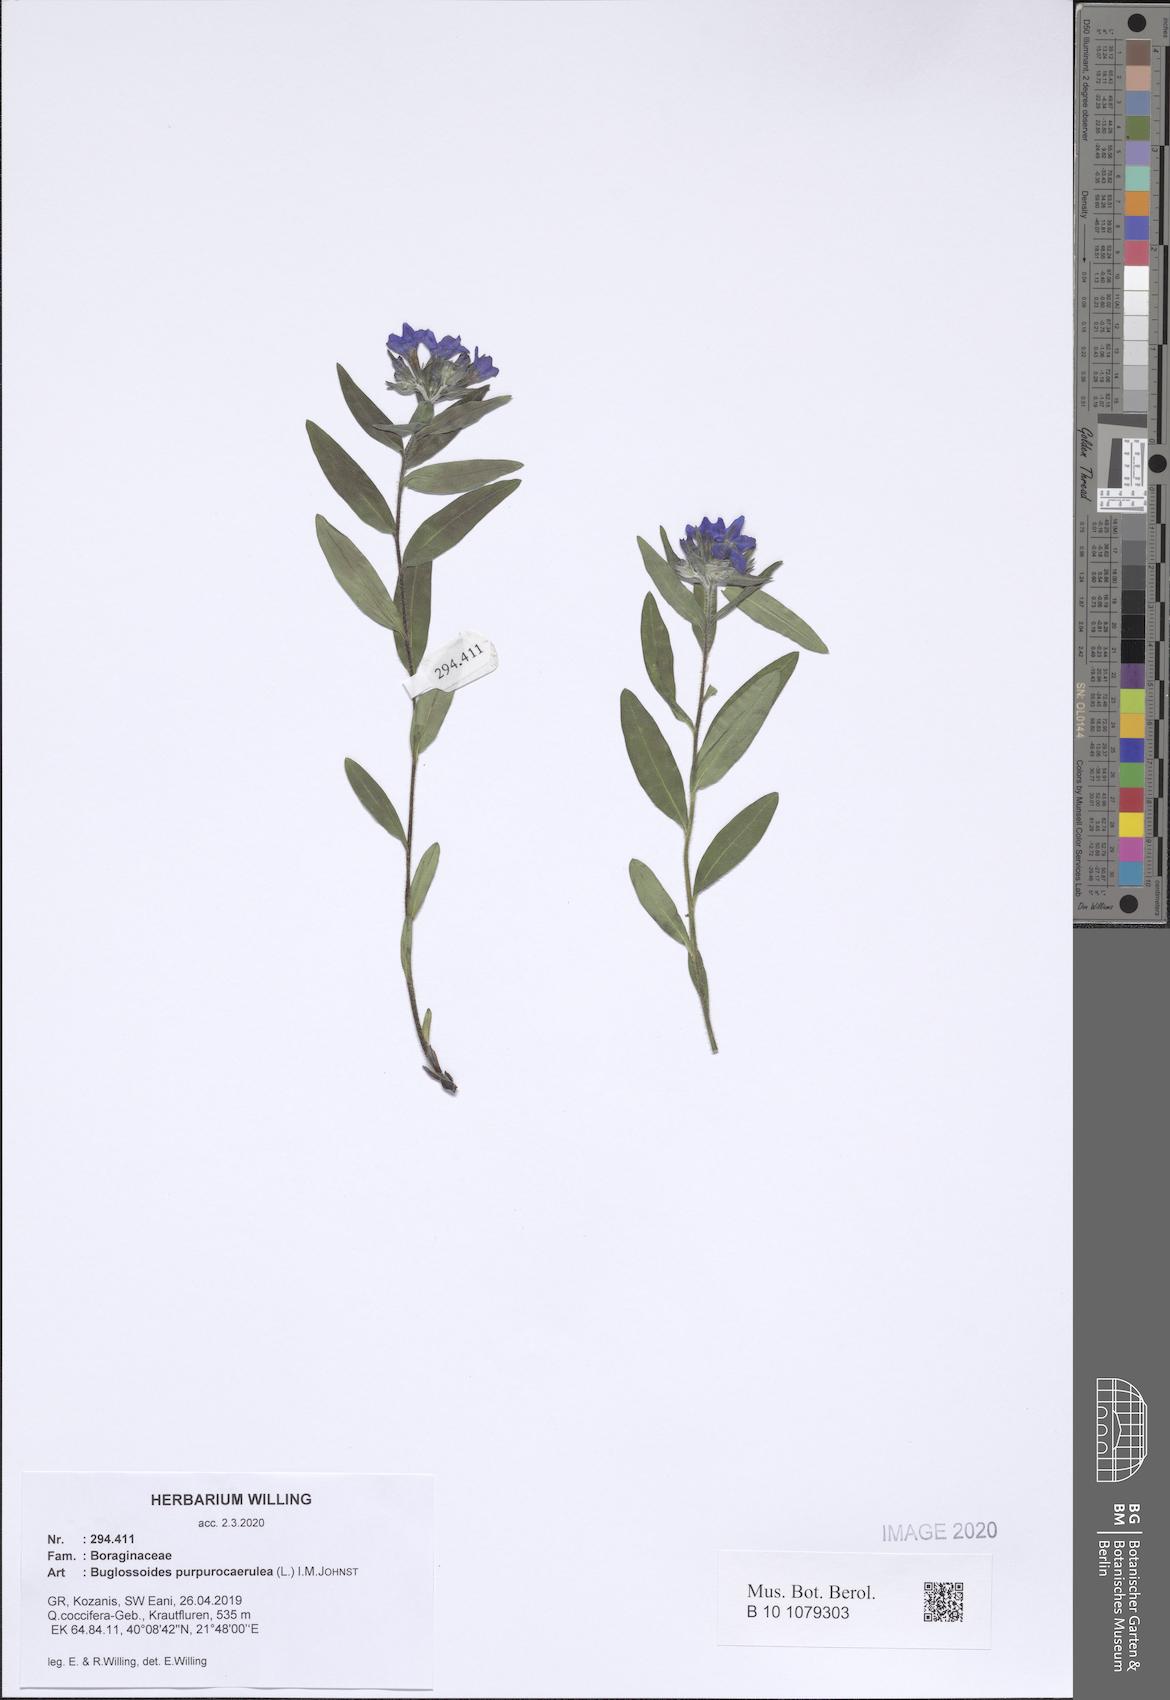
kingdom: Plantae
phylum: Tracheophyta
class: Magnoliopsida
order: Boraginales
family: Boraginaceae
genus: Aegonychon
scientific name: Aegonychon purpurocaeruleum
